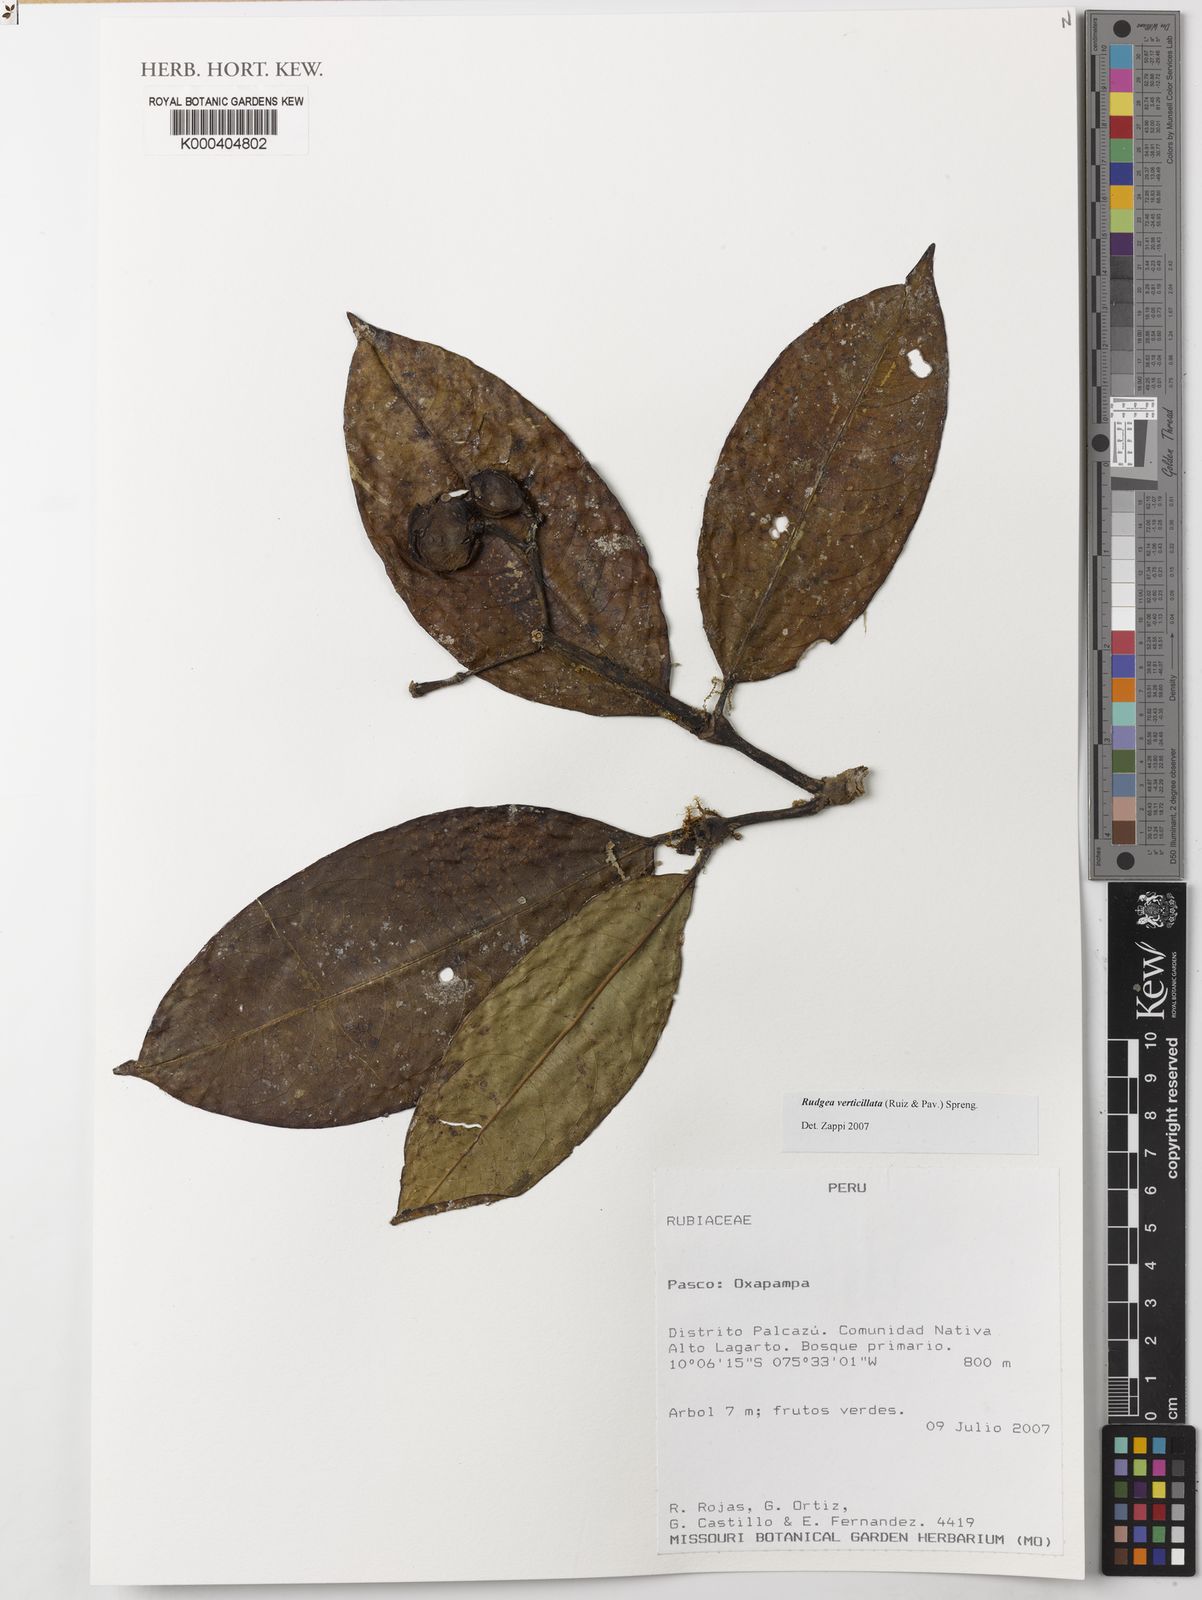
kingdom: Plantae
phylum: Tracheophyta
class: Magnoliopsida
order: Gentianales
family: Rubiaceae
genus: Rudgea
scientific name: Rudgea verticillata
